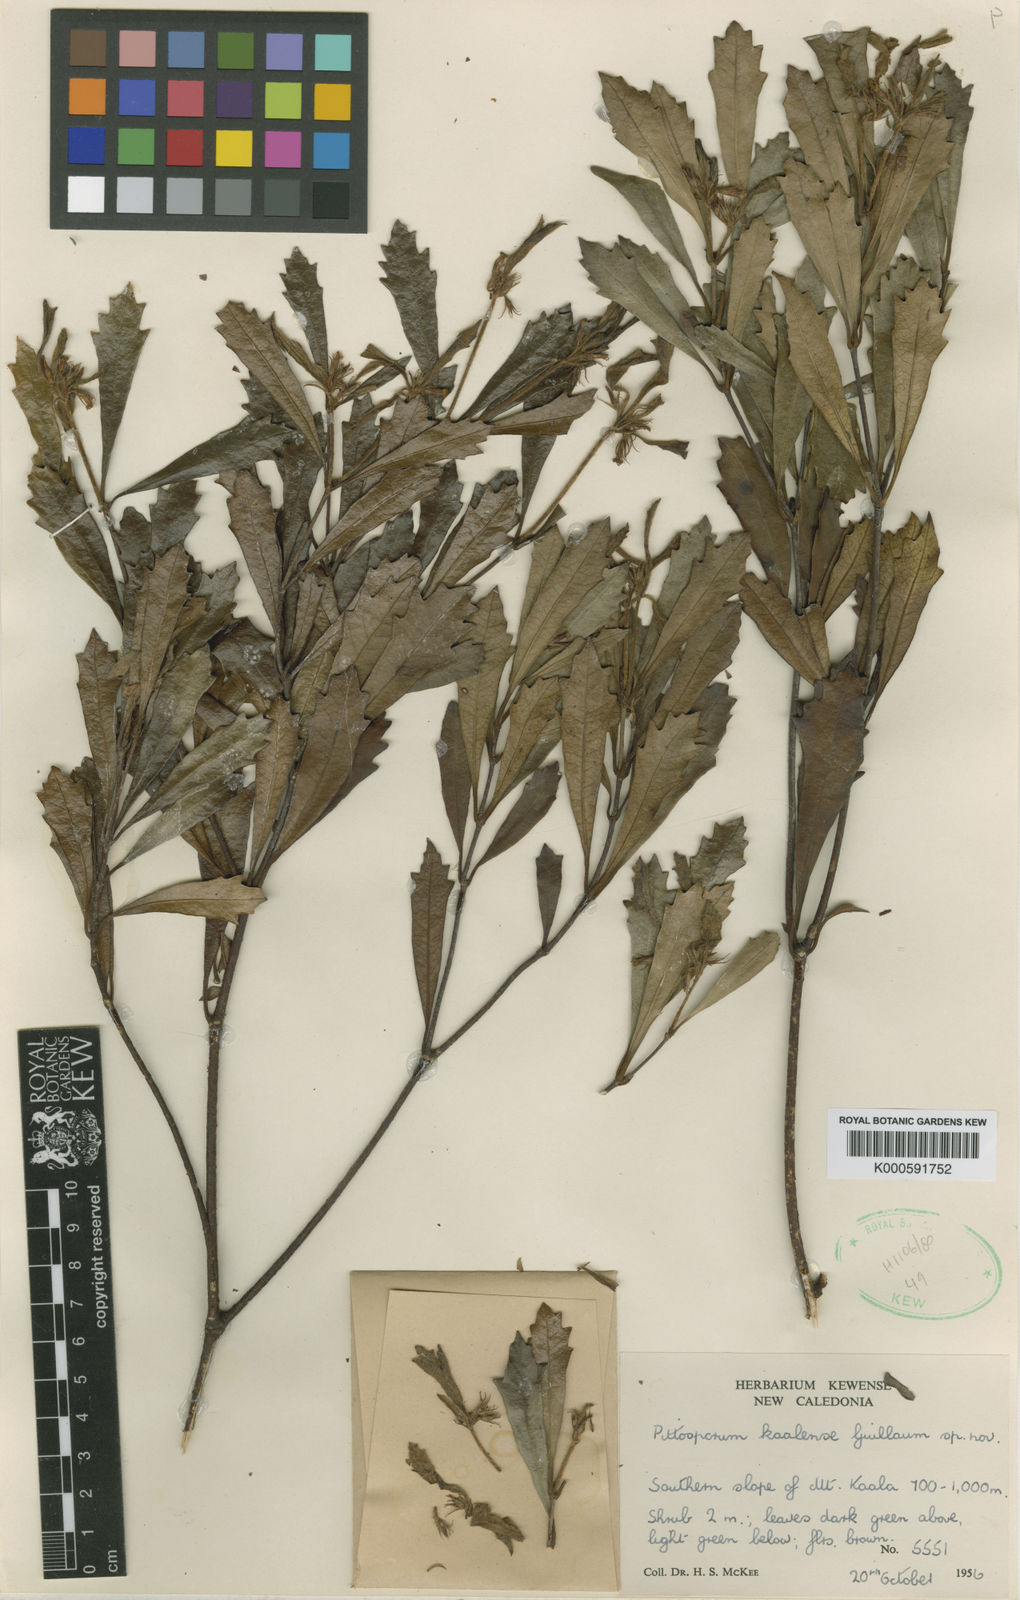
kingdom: Plantae
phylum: Tracheophyta
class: Magnoliopsida
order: Apiales
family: Pittosporaceae
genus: Pittosporum
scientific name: Pittosporum kaalense
